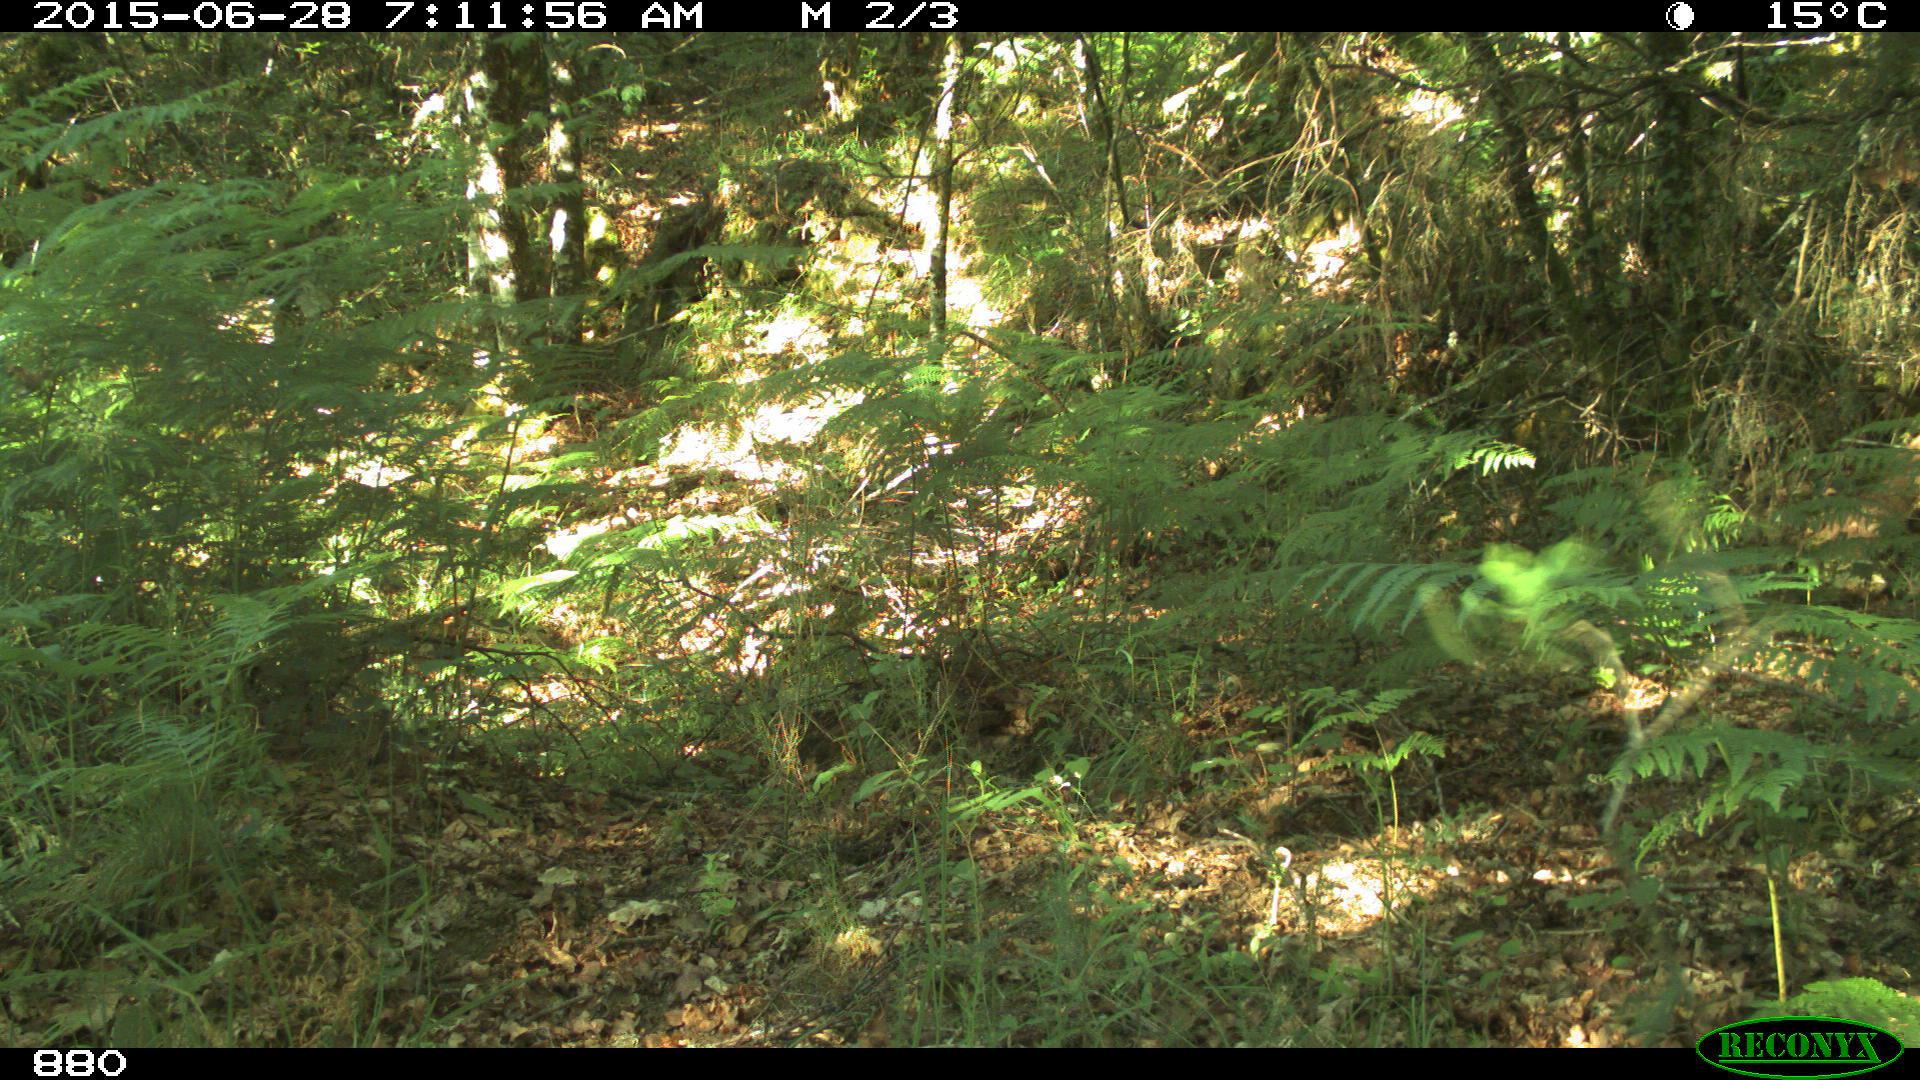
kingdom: Animalia
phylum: Chordata
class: Mammalia
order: Artiodactyla
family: Cervidae
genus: Capreolus
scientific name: Capreolus capreolus
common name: Western roe deer
